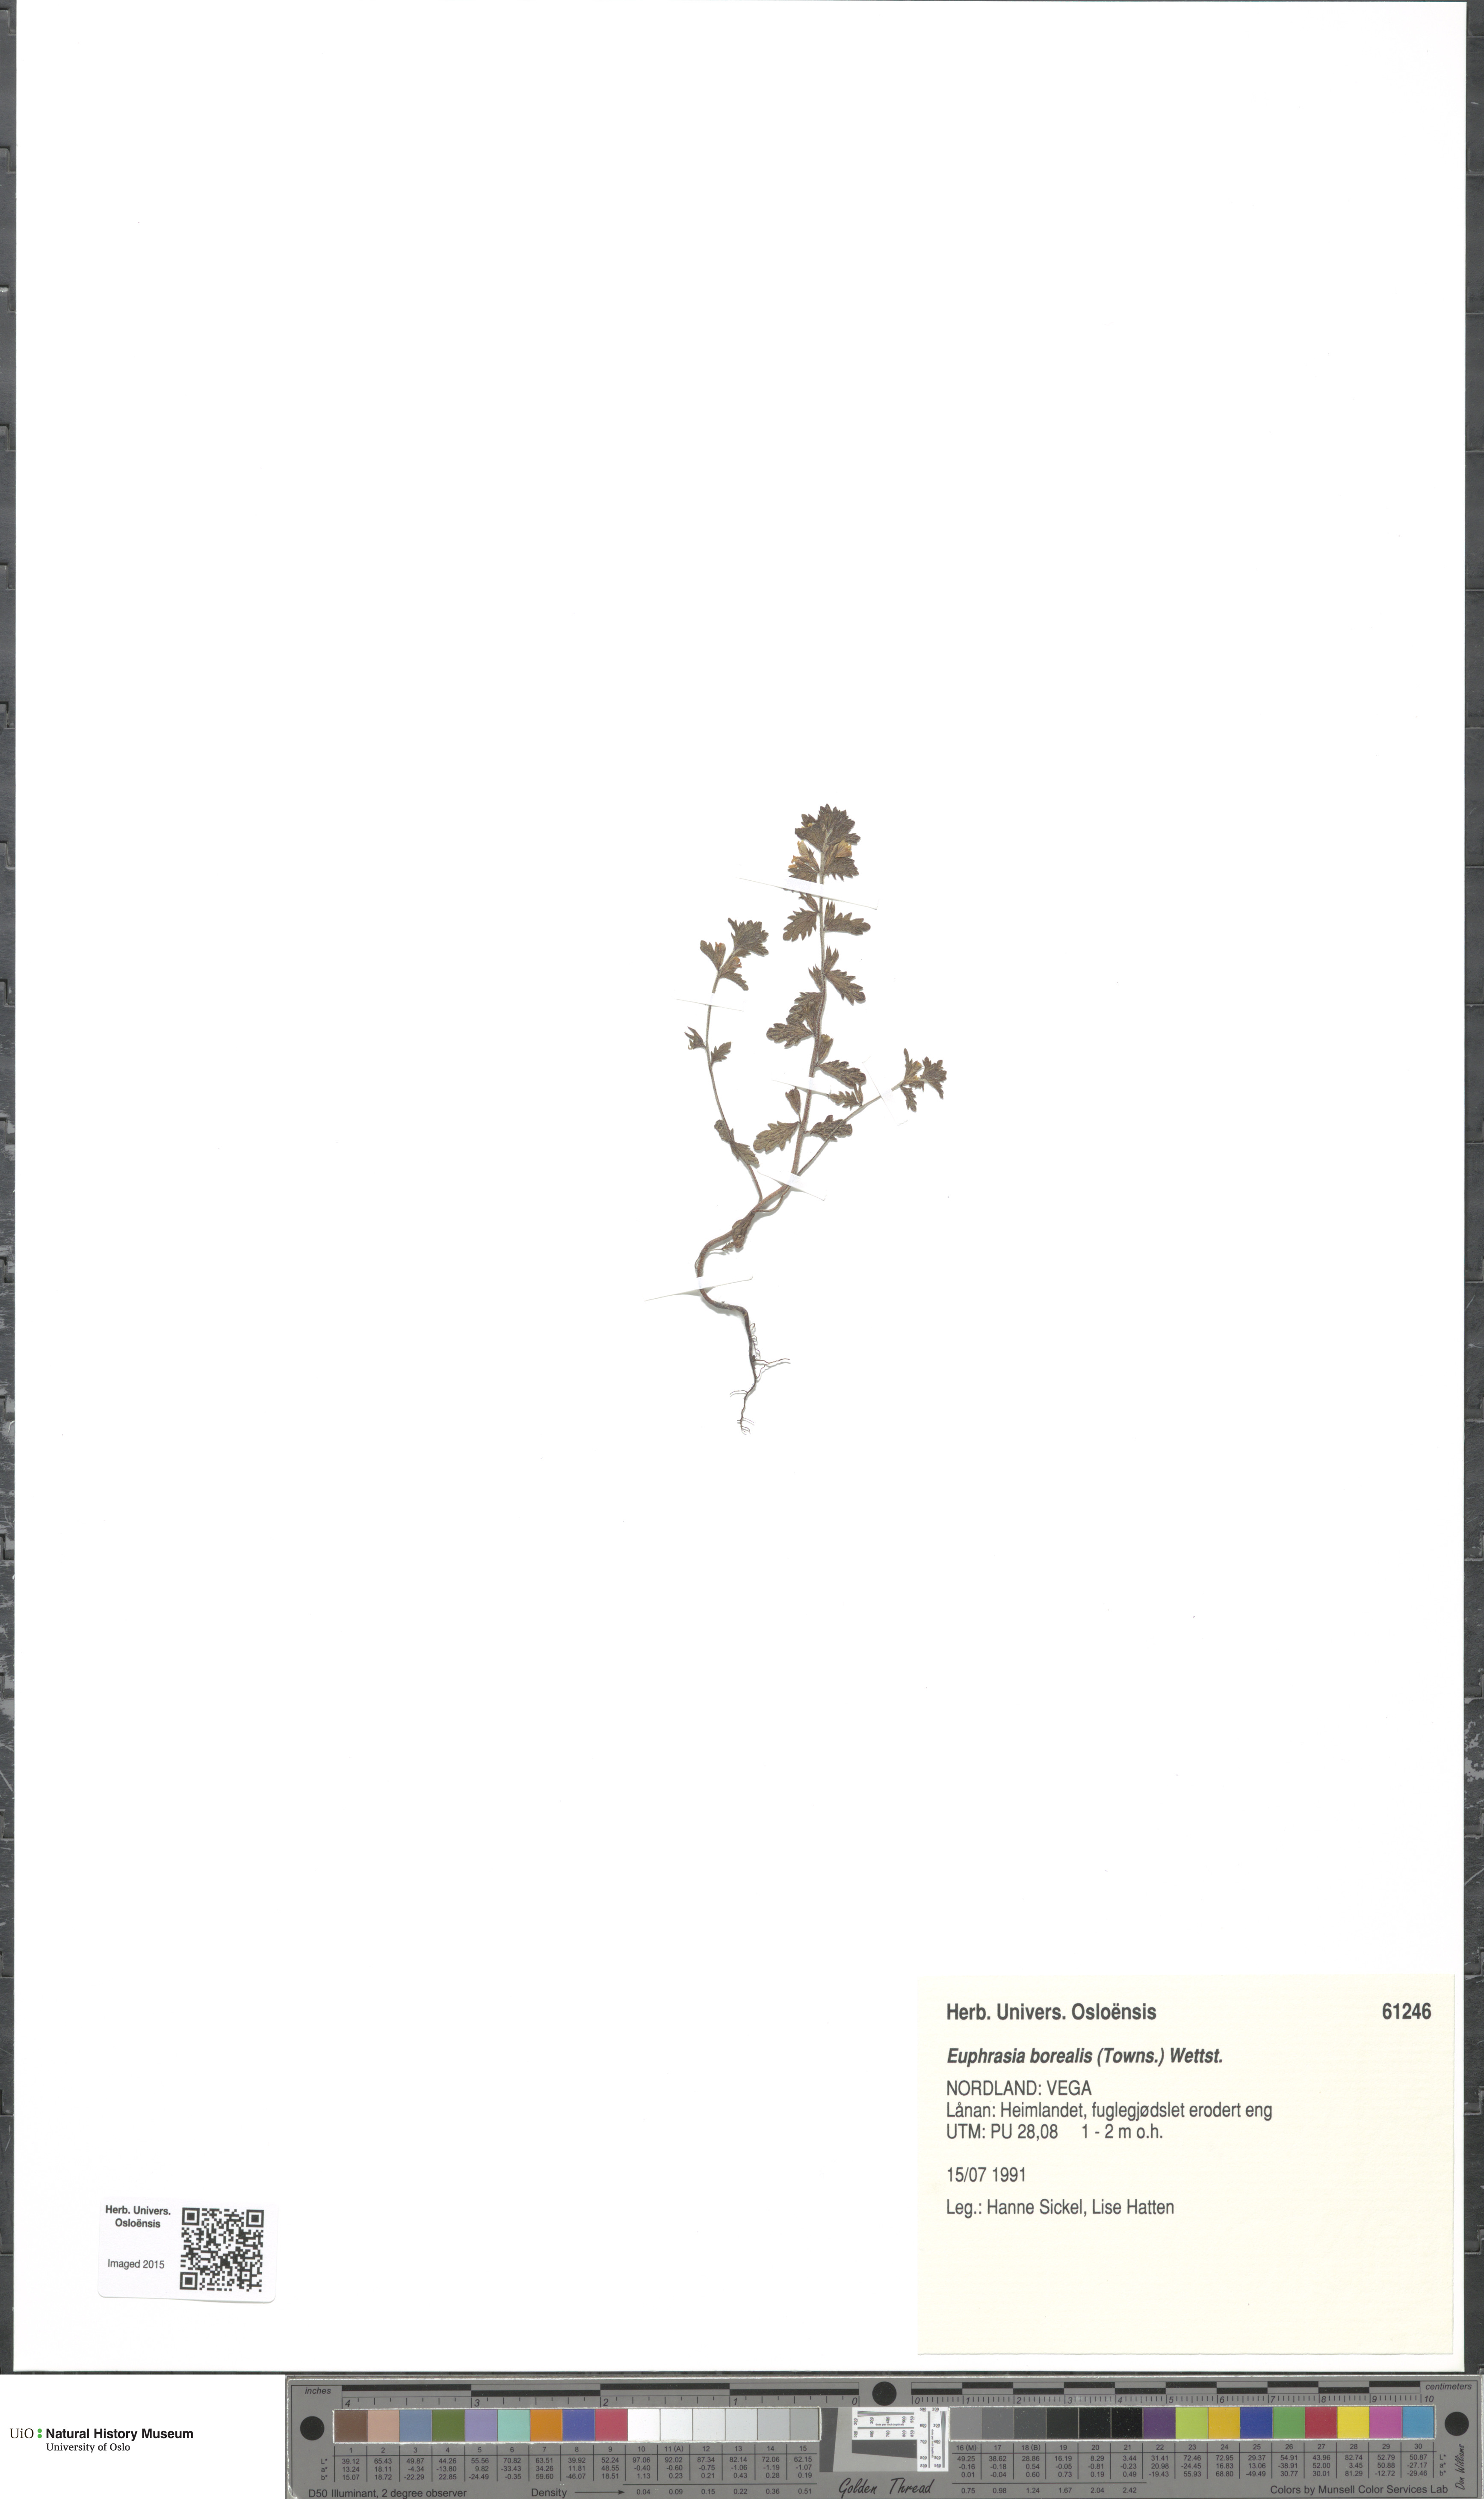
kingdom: Plantae
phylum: Tracheophyta
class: Magnoliopsida
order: Lamiales
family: Orobanchaceae
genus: Euphrasia
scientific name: Euphrasia arctica
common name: An eyebright
